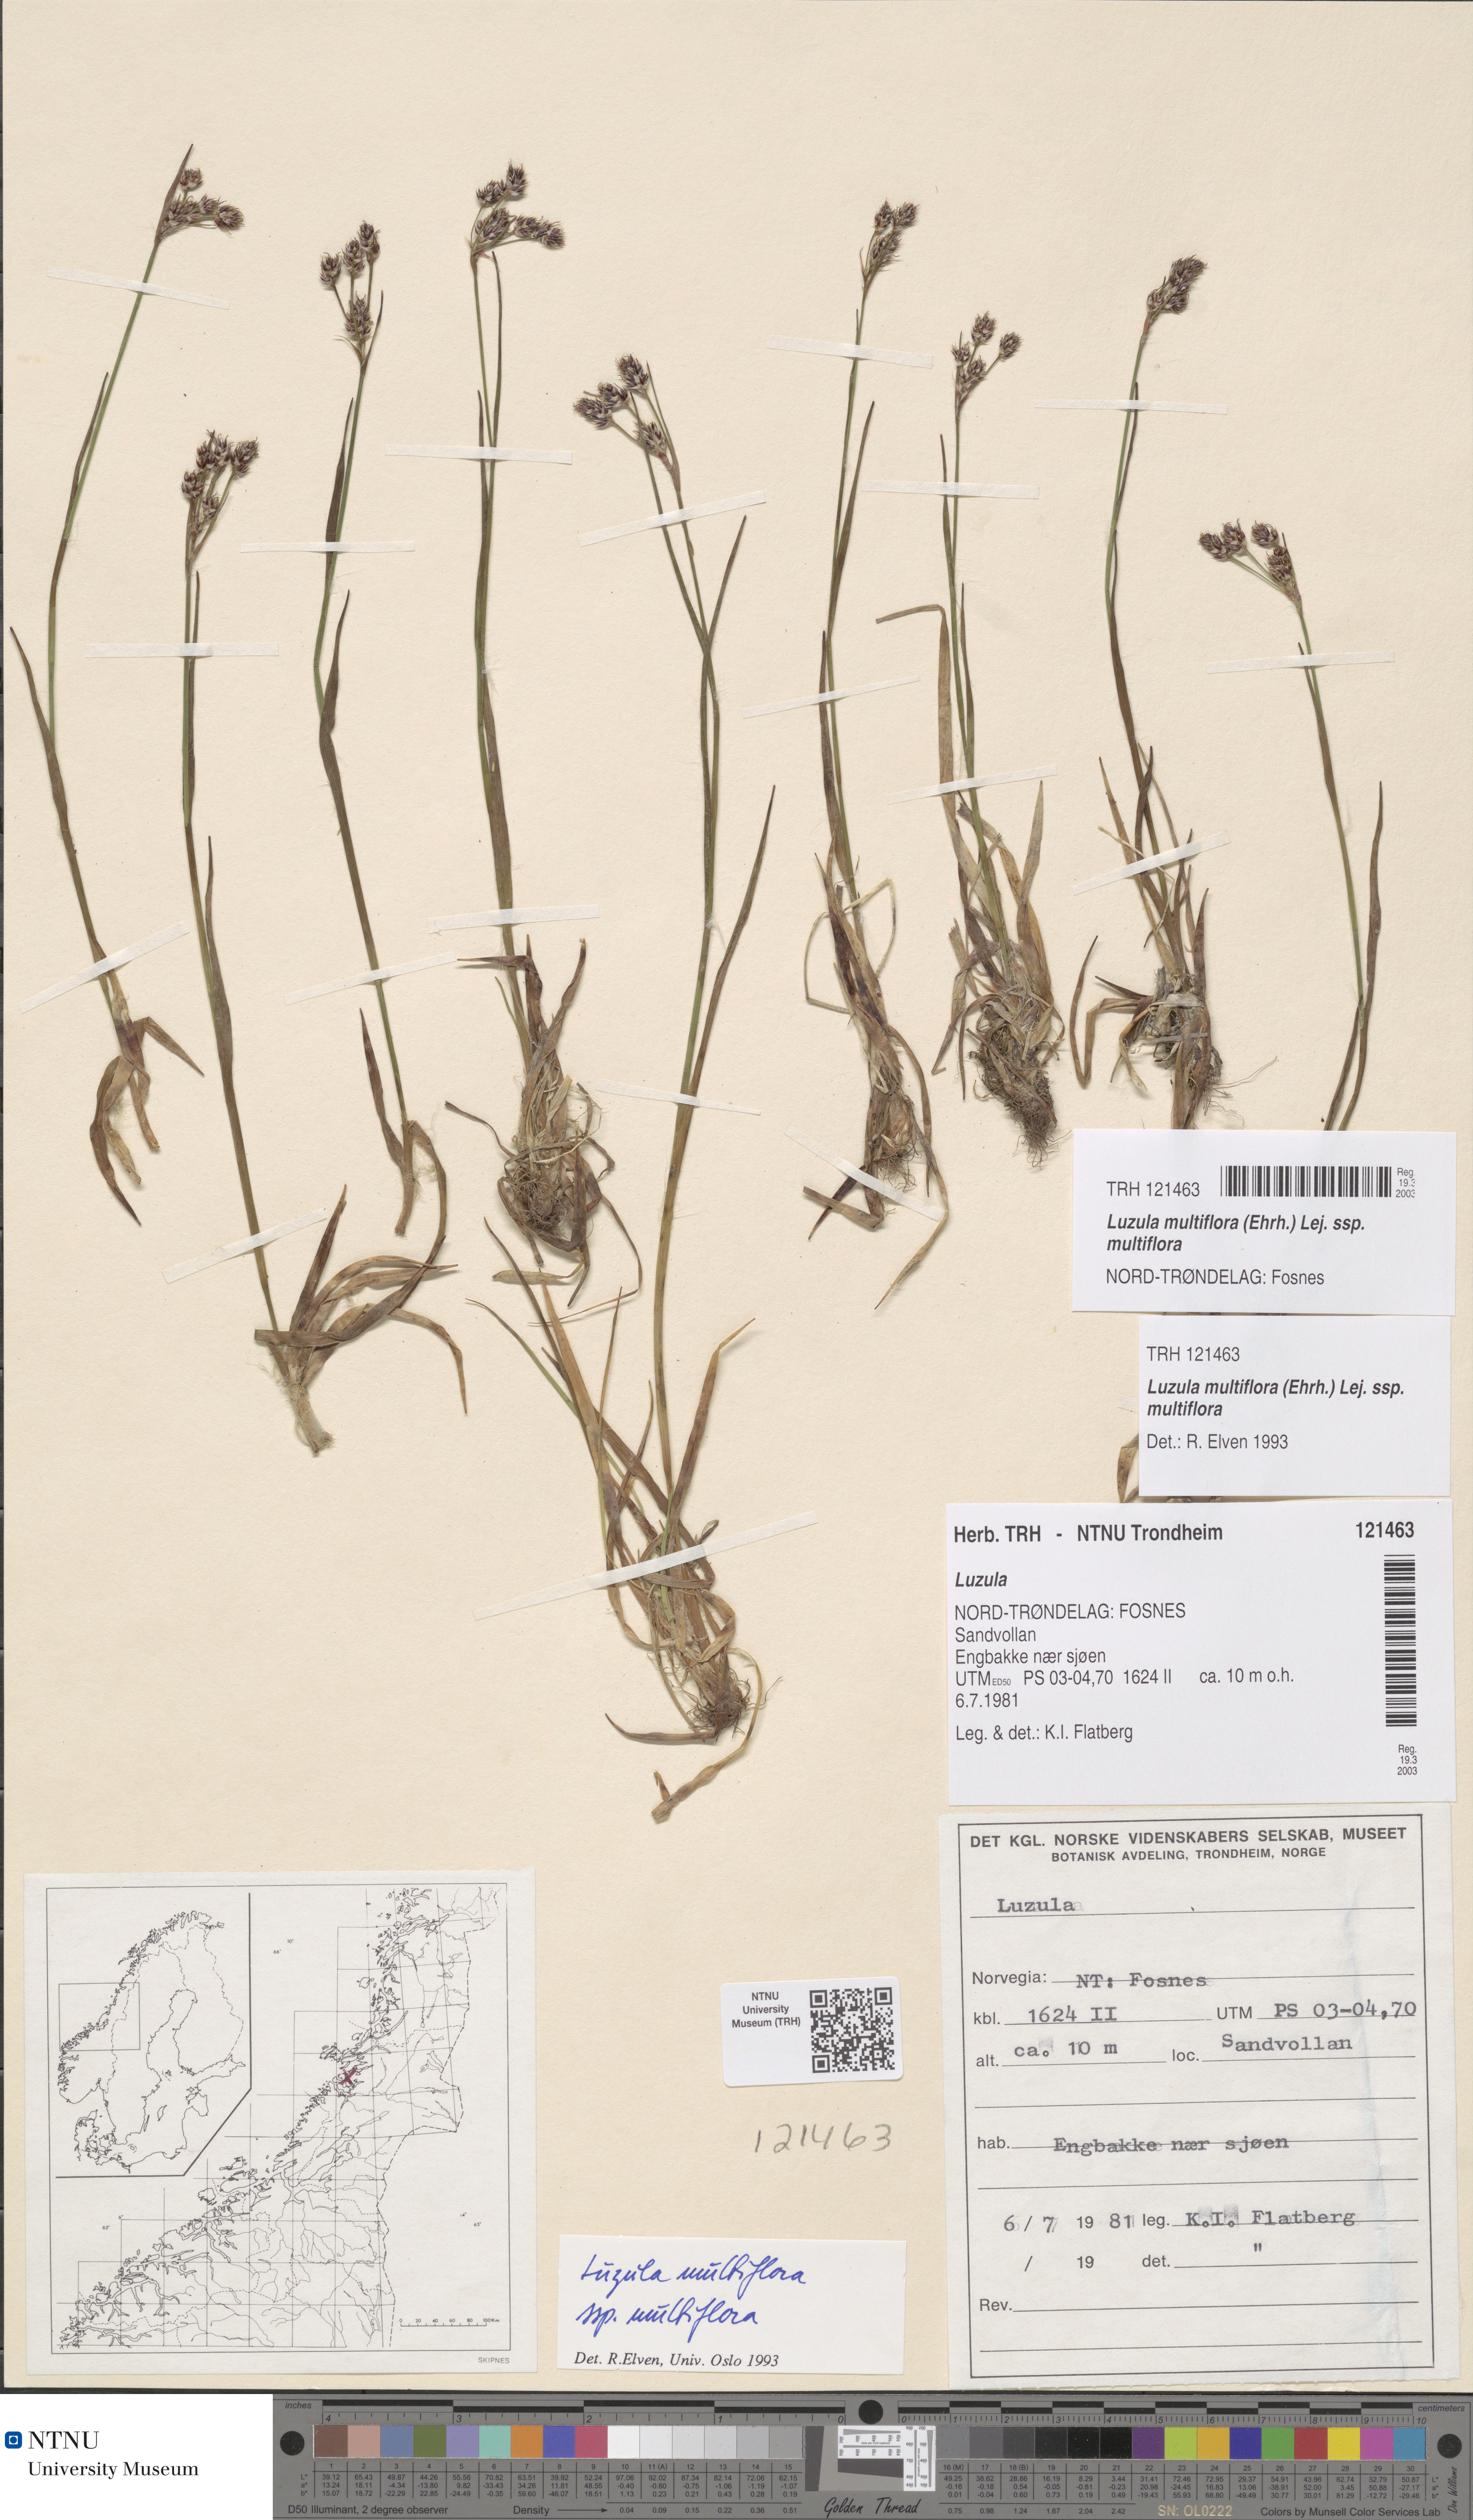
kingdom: Plantae
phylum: Tracheophyta
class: Liliopsida
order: Poales
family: Juncaceae
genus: Luzula
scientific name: Luzula multiflora
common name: Heath wood-rush
